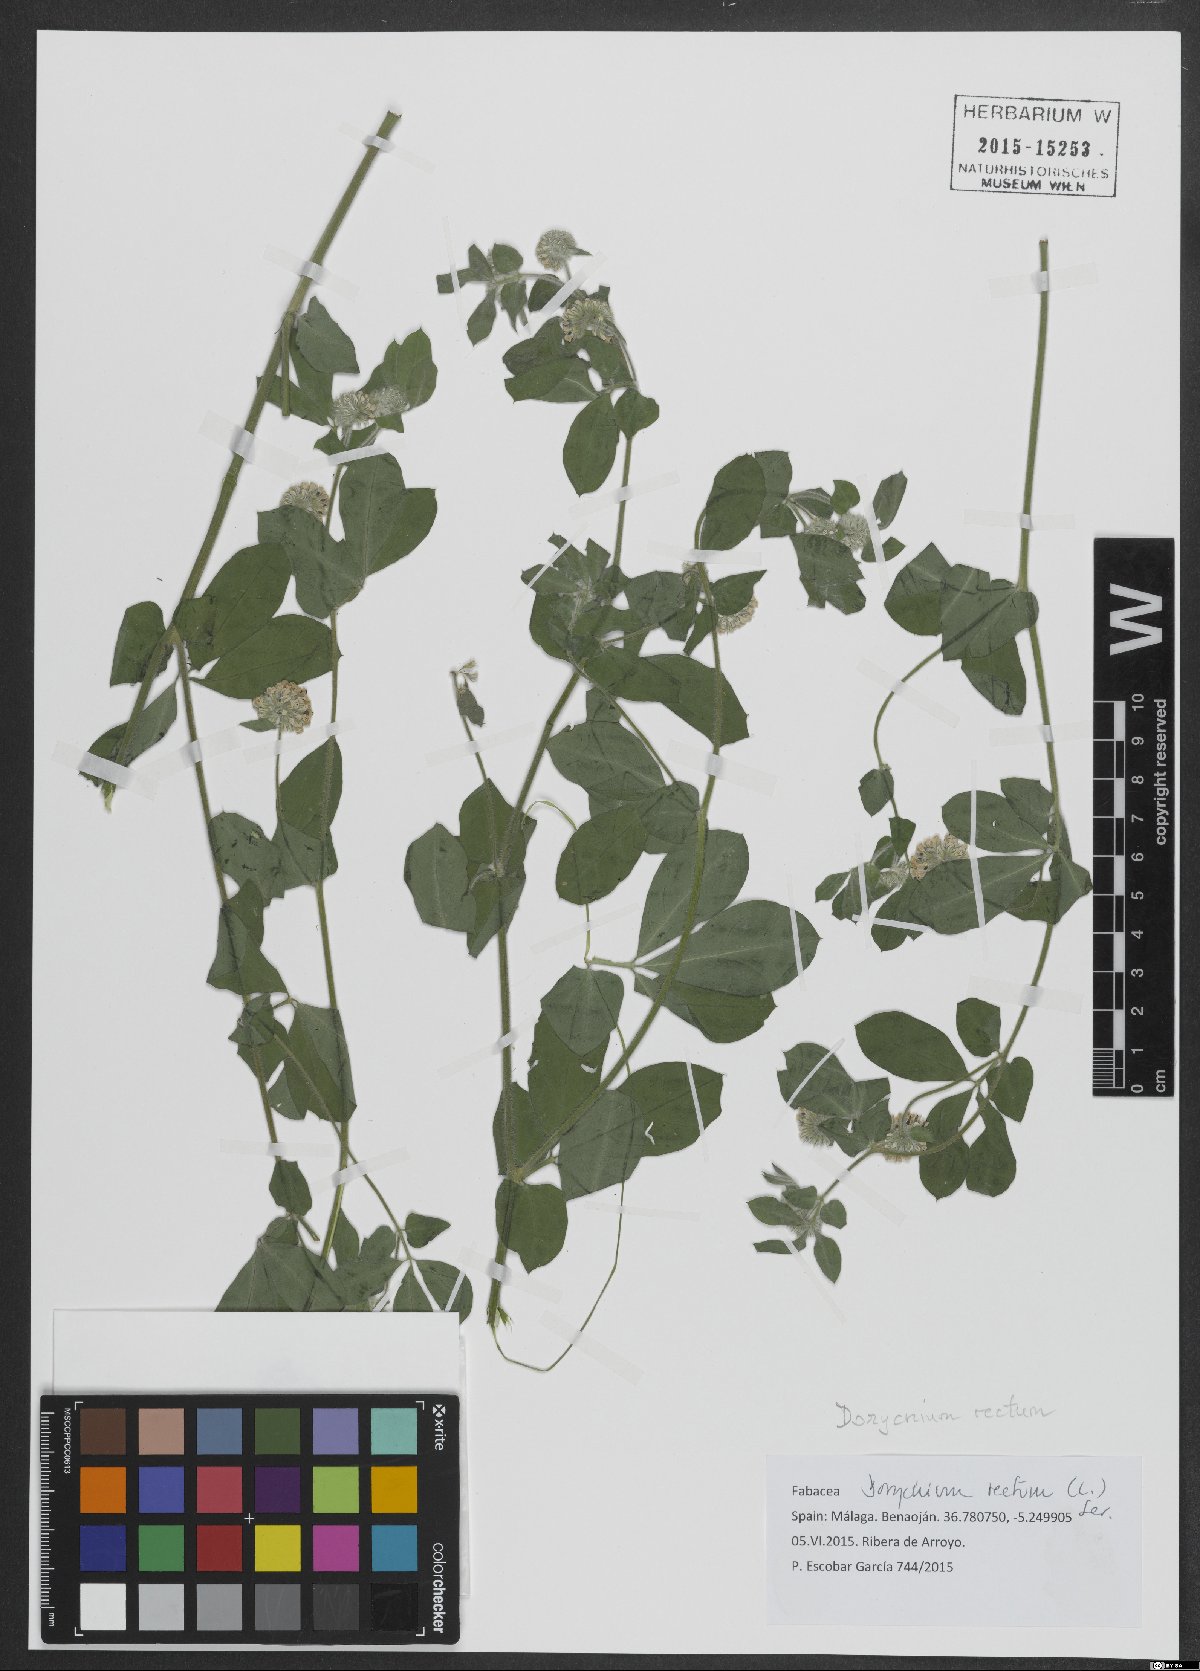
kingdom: Plantae
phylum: Tracheophyta
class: Magnoliopsida
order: Fabales
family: Fabaceae
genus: Lotus
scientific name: Lotus rectus
